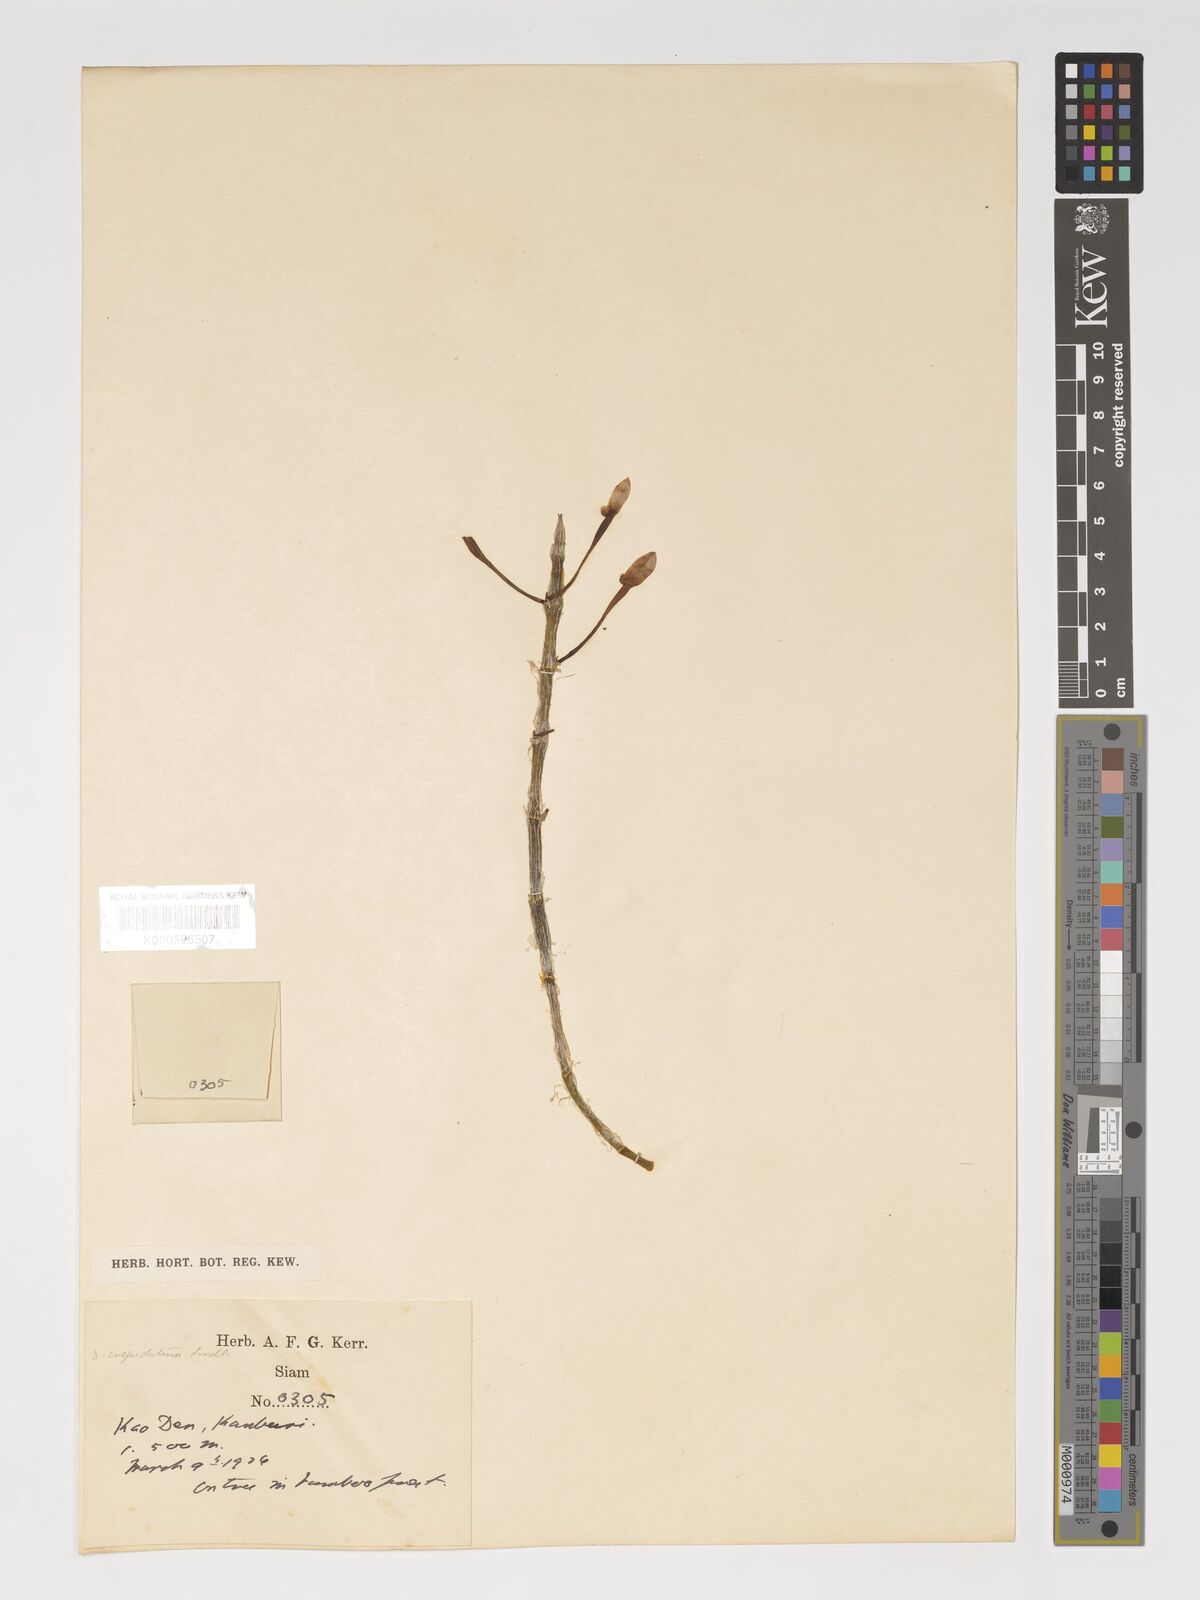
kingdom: Plantae
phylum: Tracheophyta
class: Liliopsida
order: Asparagales
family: Orchidaceae
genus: Dendrobium
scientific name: Dendrobium crepidatum
